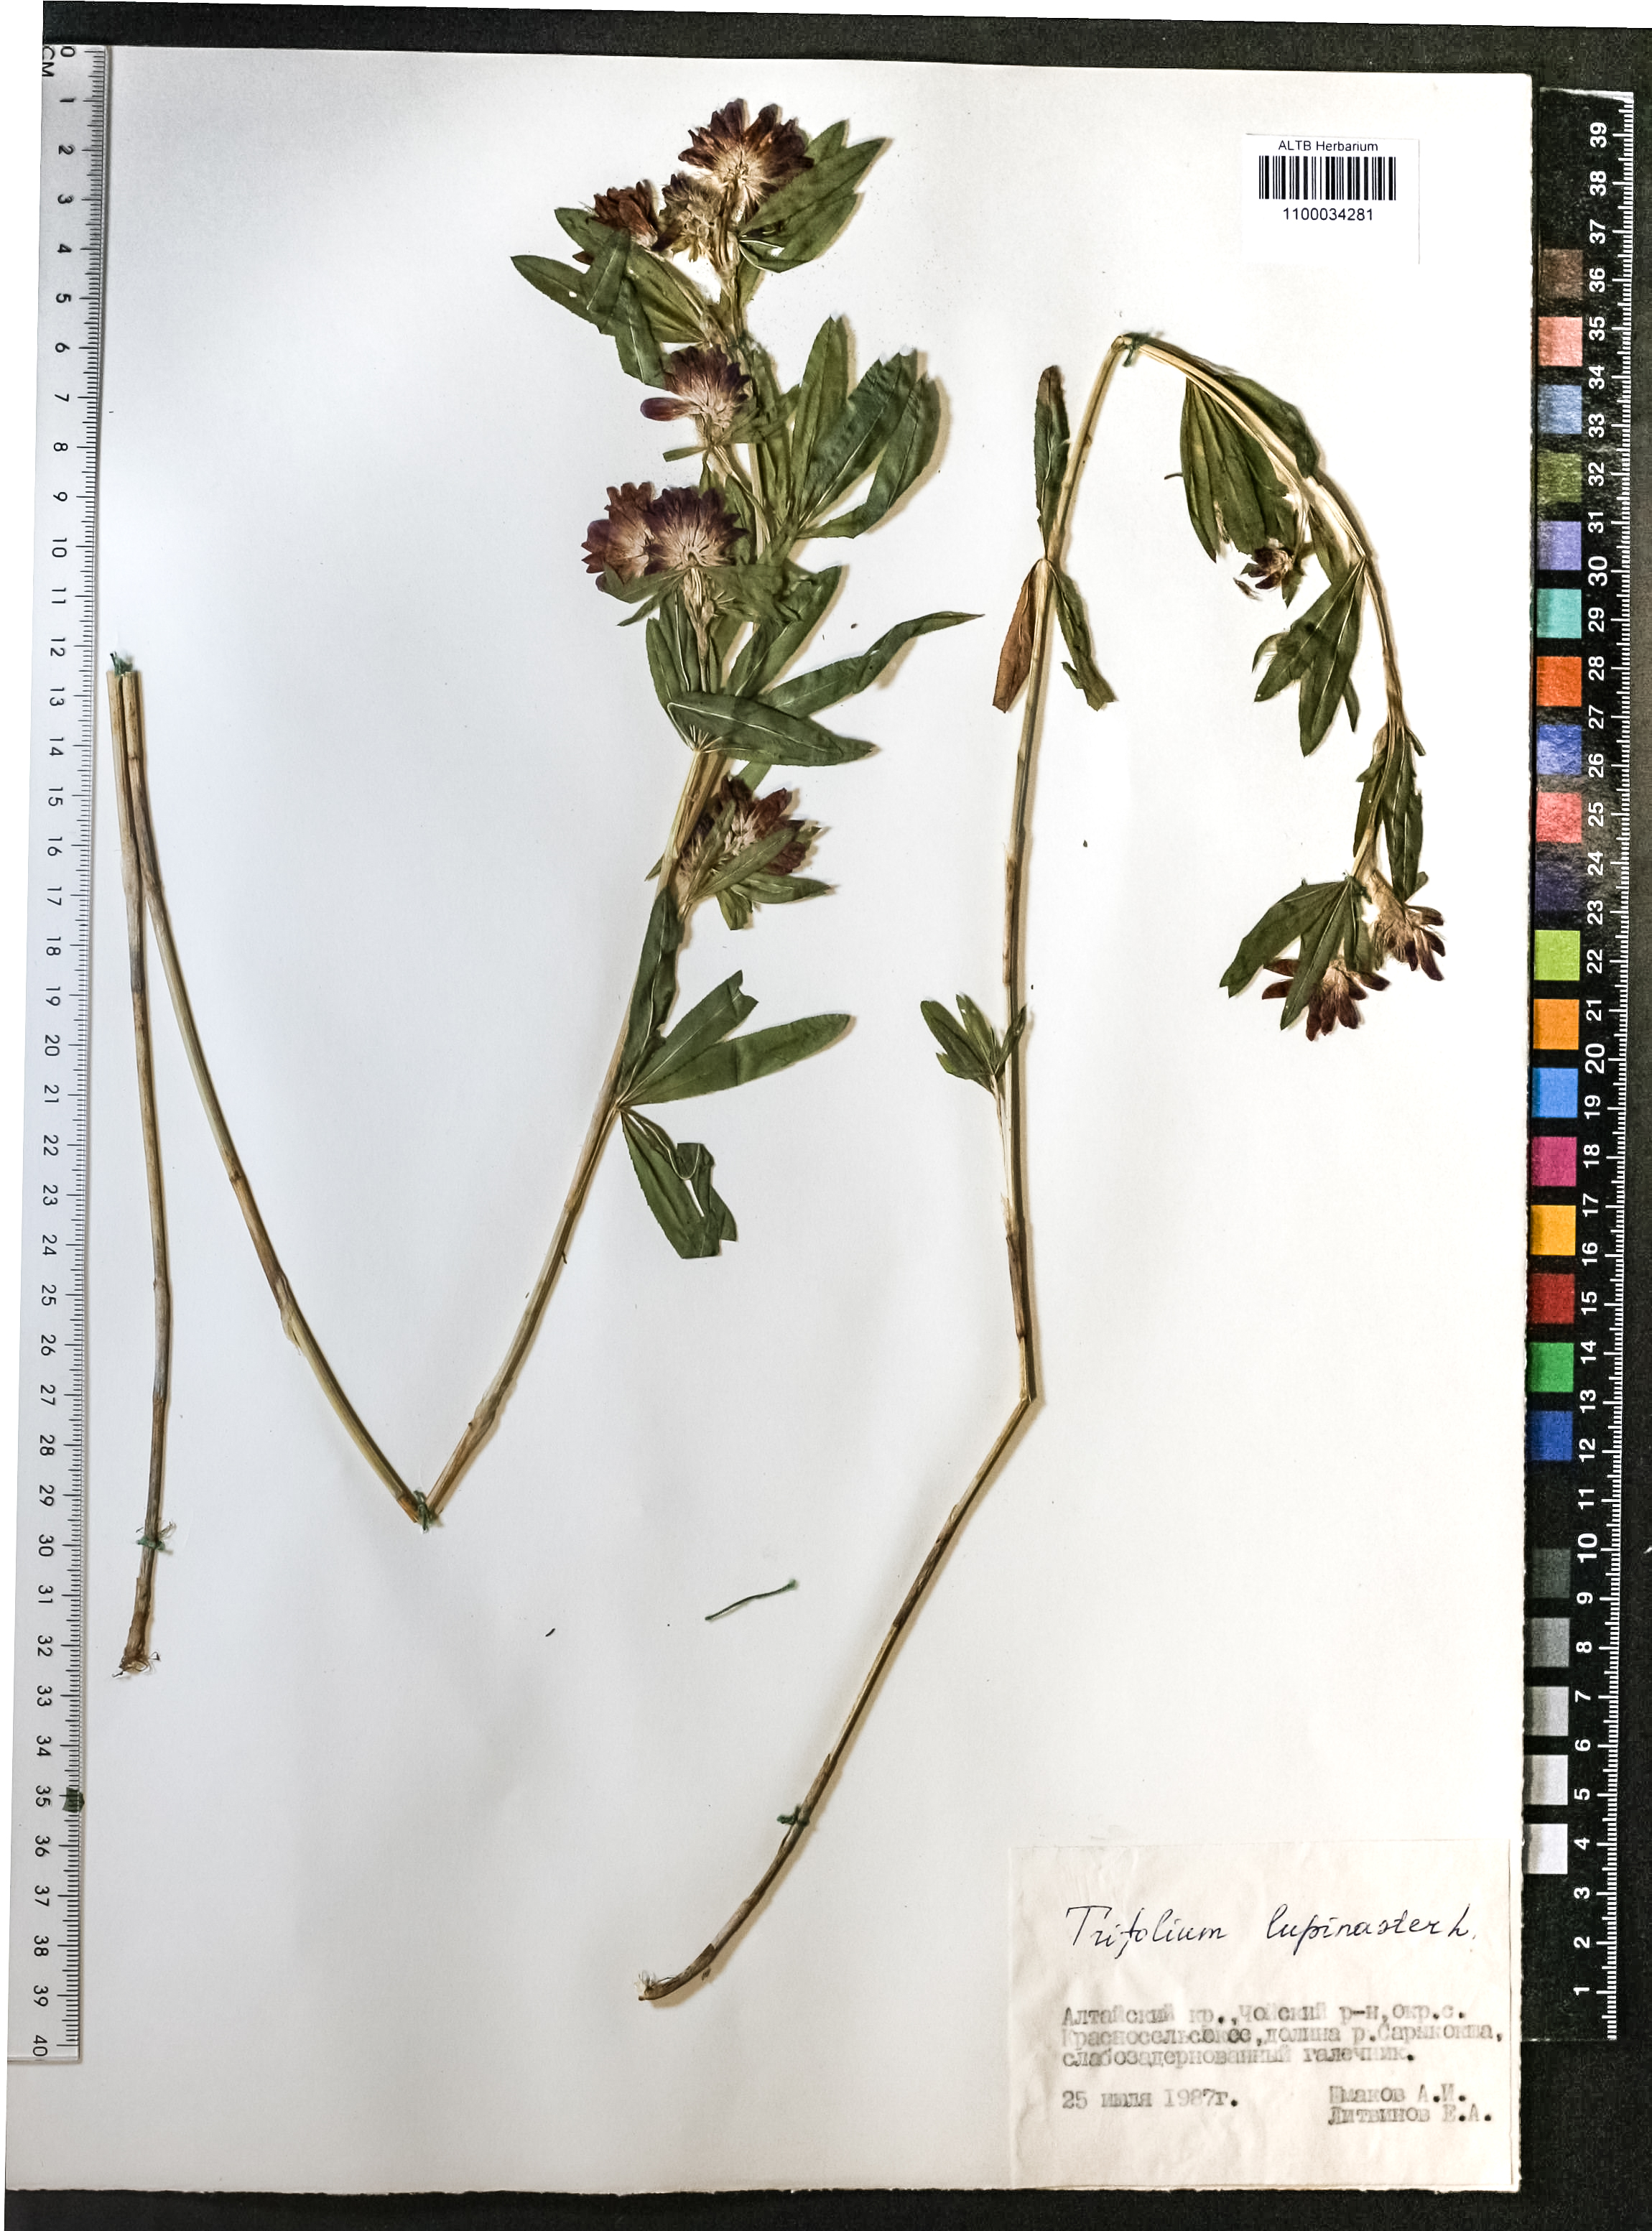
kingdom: Plantae
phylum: Tracheophyta
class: Magnoliopsida
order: Fabales
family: Fabaceae
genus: Trifolium
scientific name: Trifolium lupinaster
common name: Lupine clover
